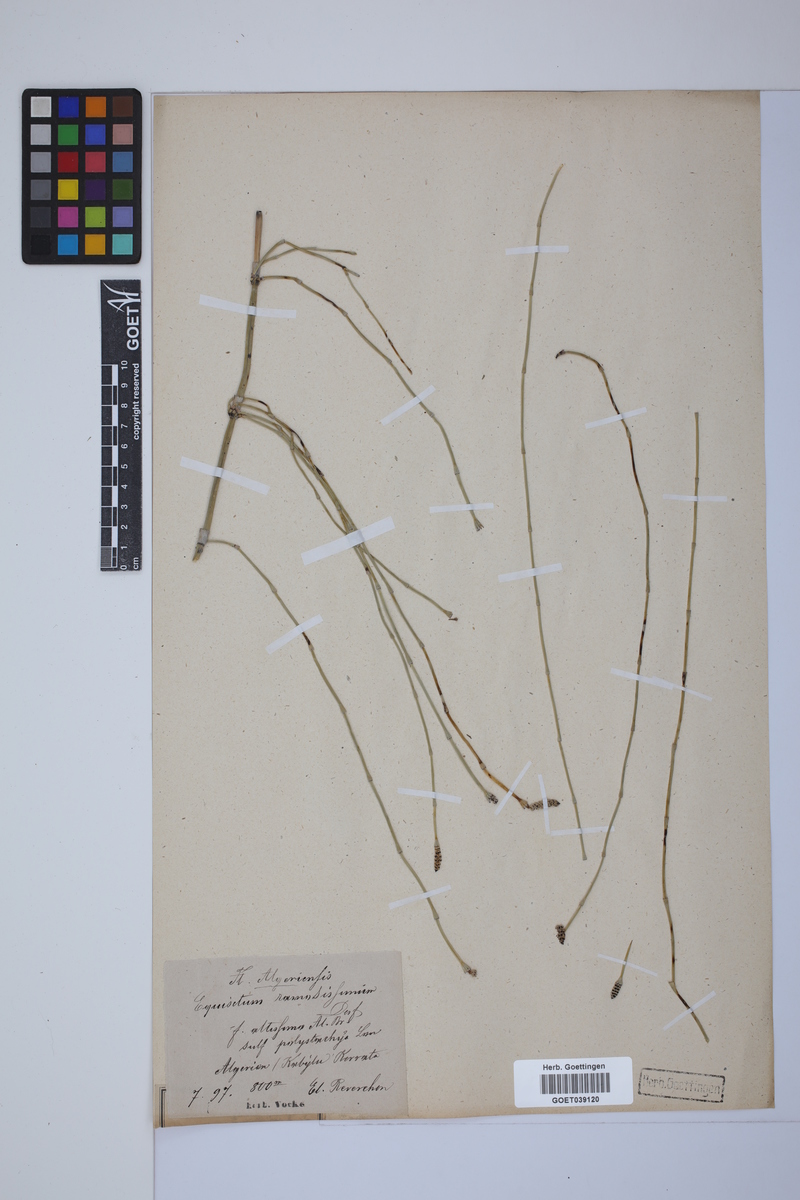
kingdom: Plantae
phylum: Tracheophyta
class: Polypodiopsida
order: Equisetales
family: Equisetaceae
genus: Equisetum
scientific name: Equisetum giganteum
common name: Giant horsetail
